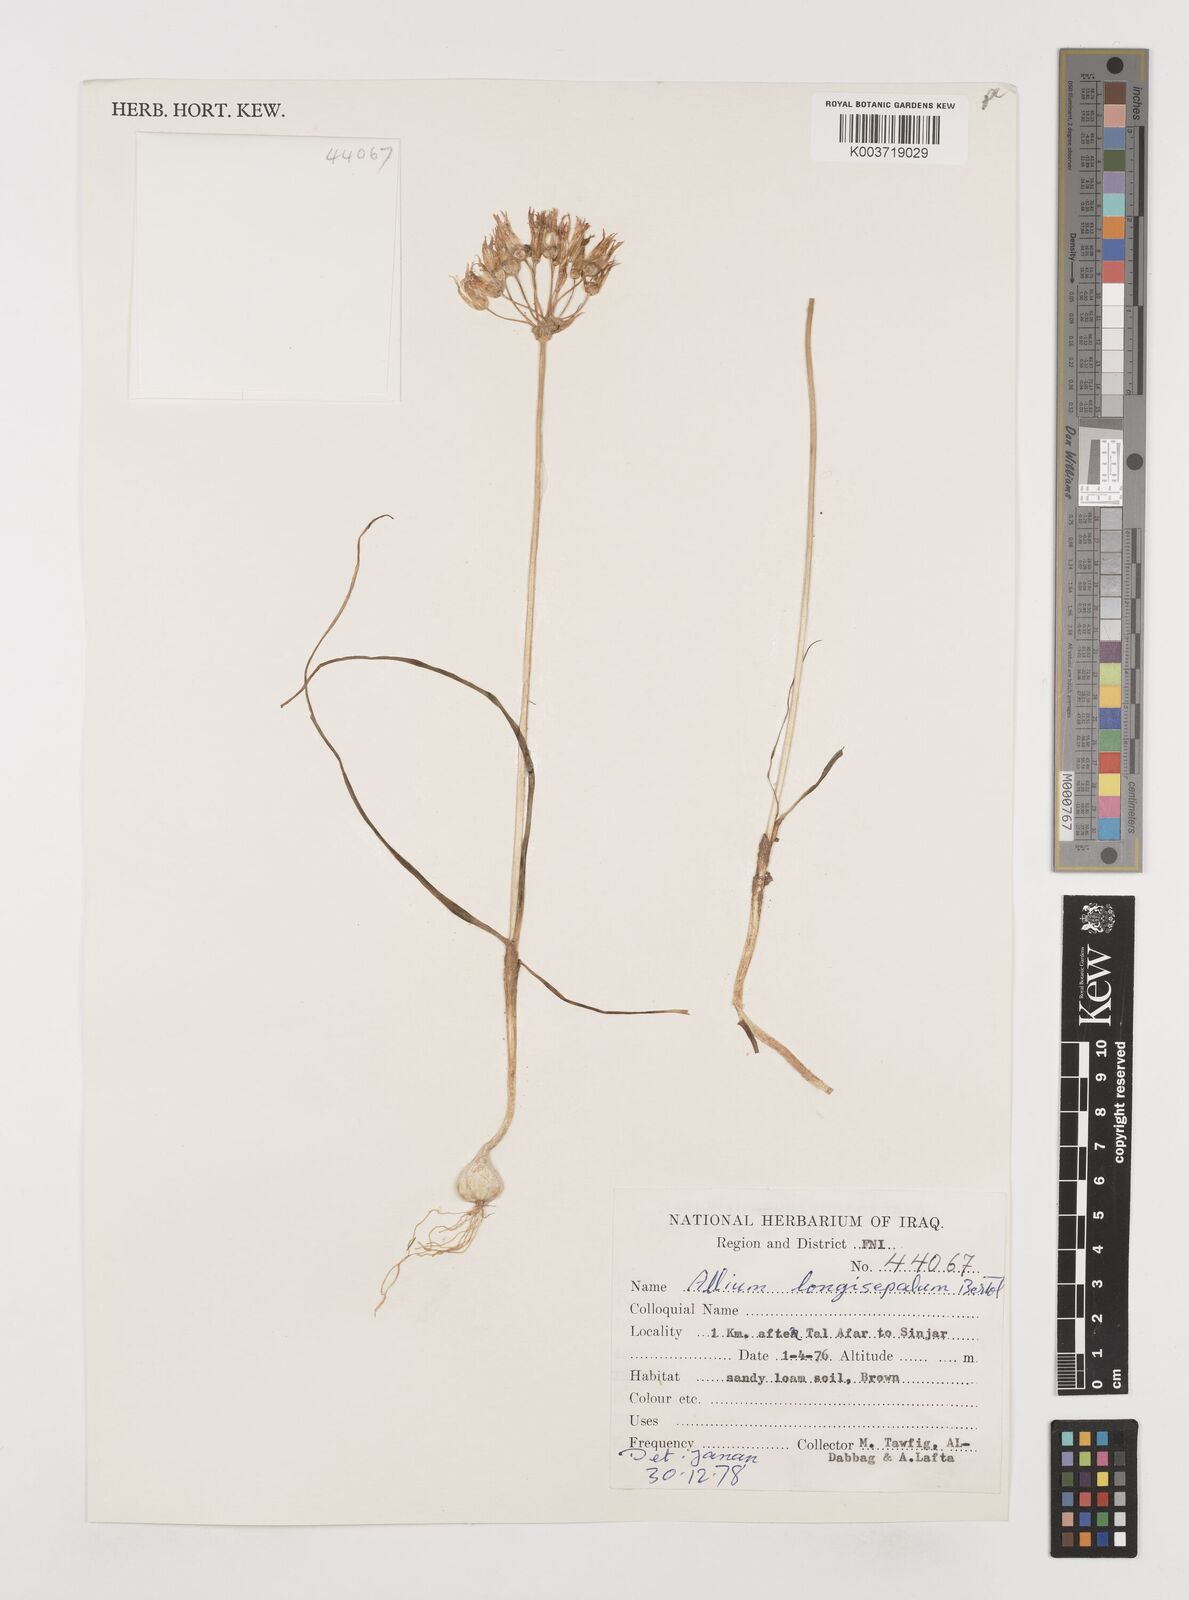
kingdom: Plantae
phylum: Tracheophyta
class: Liliopsida
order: Asparagales
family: Amaryllidaceae
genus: Allium
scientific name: Allium longisepalum
